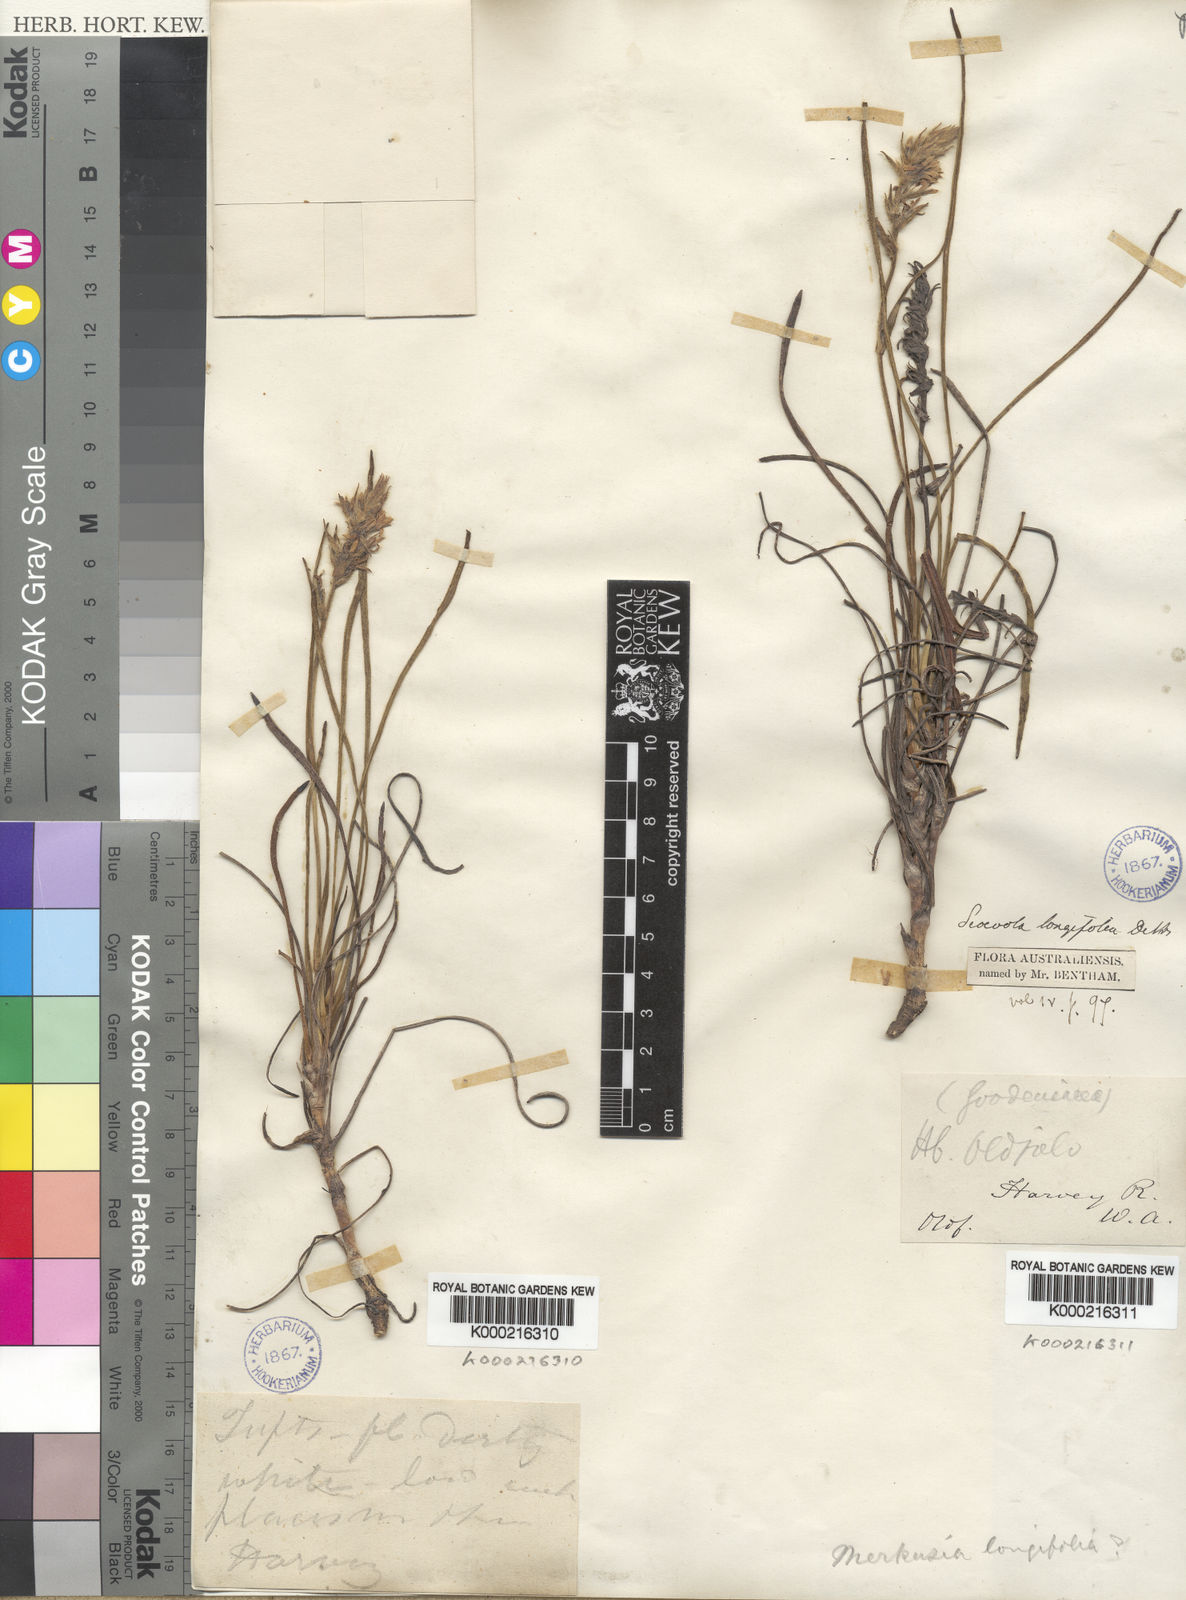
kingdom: Plantae
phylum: Tracheophyta
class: Magnoliopsida
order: Asterales
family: Goodeniaceae
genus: Scaevola
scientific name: Scaevola lanceolata
